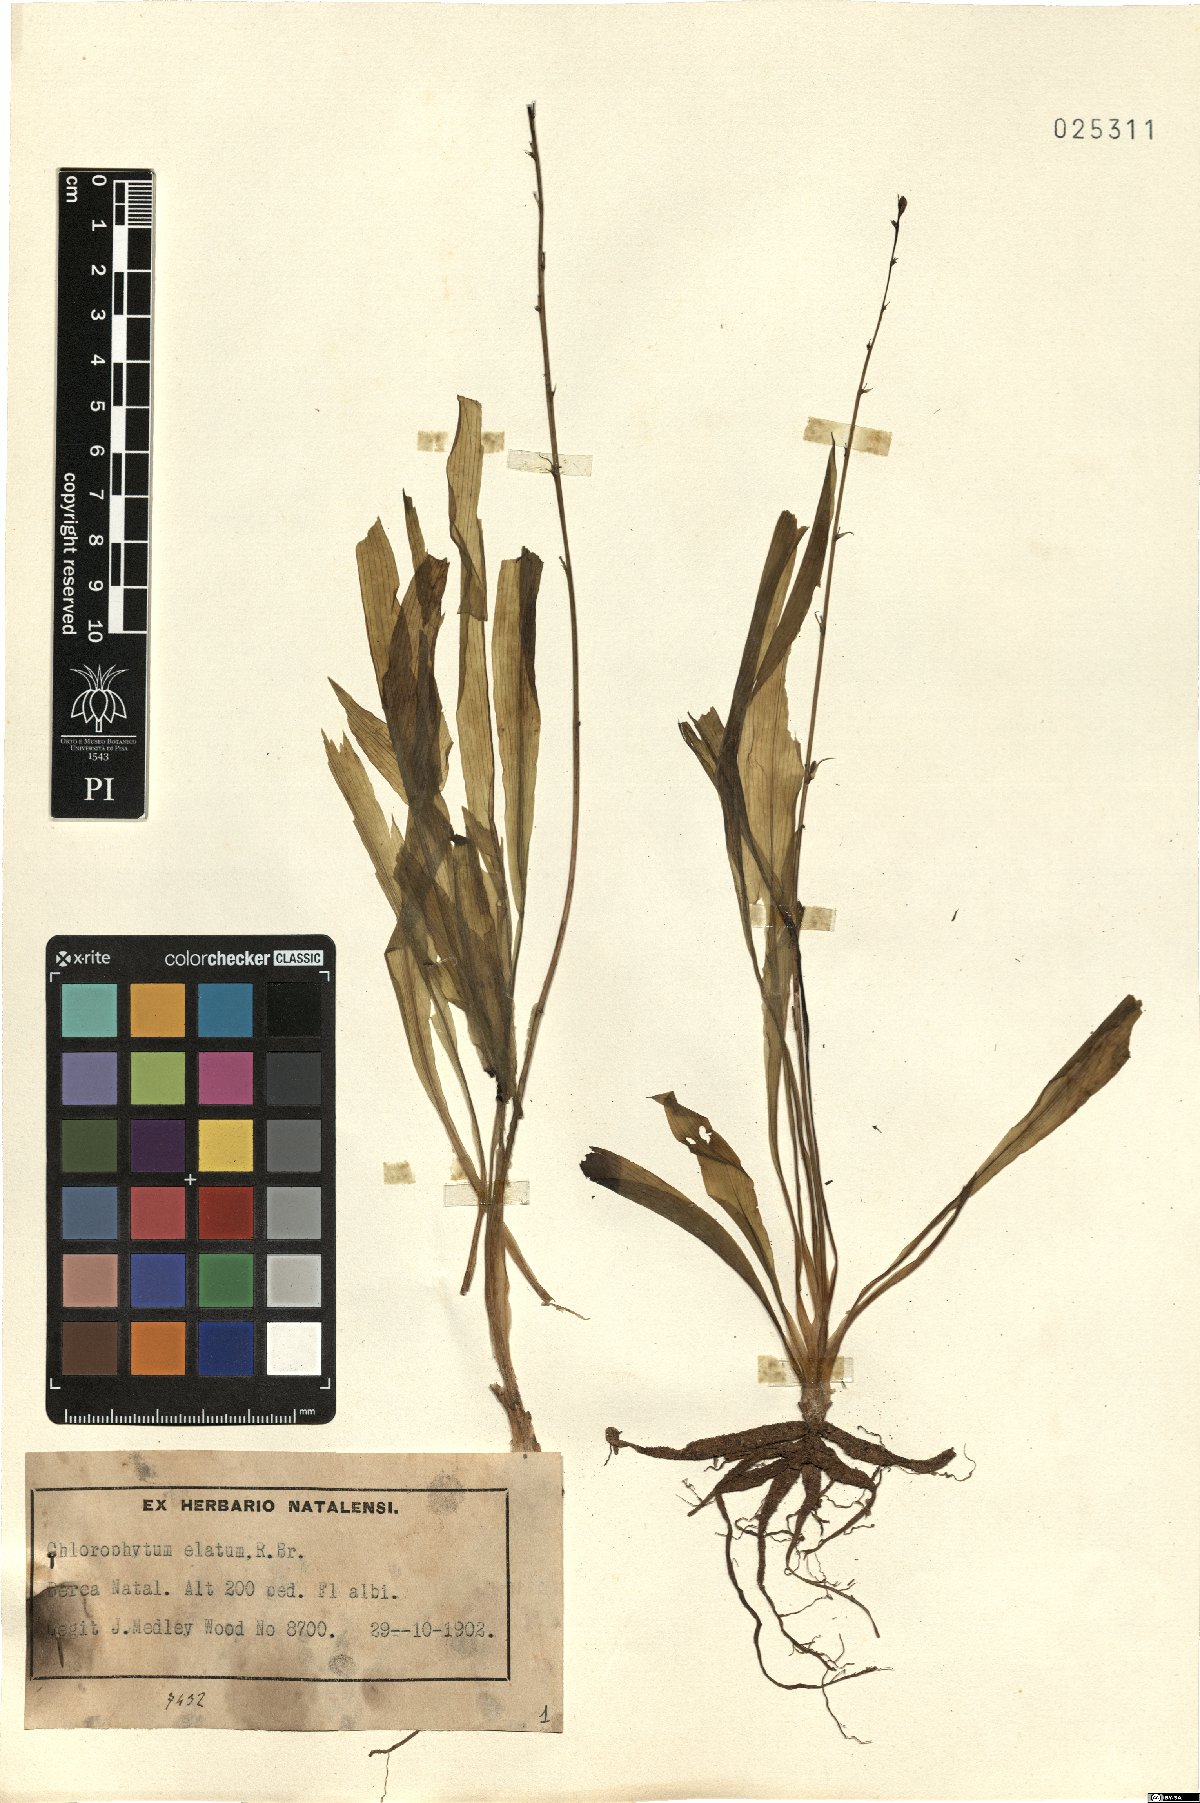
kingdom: Plantae
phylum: Tracheophyta
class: Liliopsida
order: Asparagales
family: Asparagaceae
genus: Chlorophytum
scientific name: Chlorophytum capense
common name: Bracketplant
